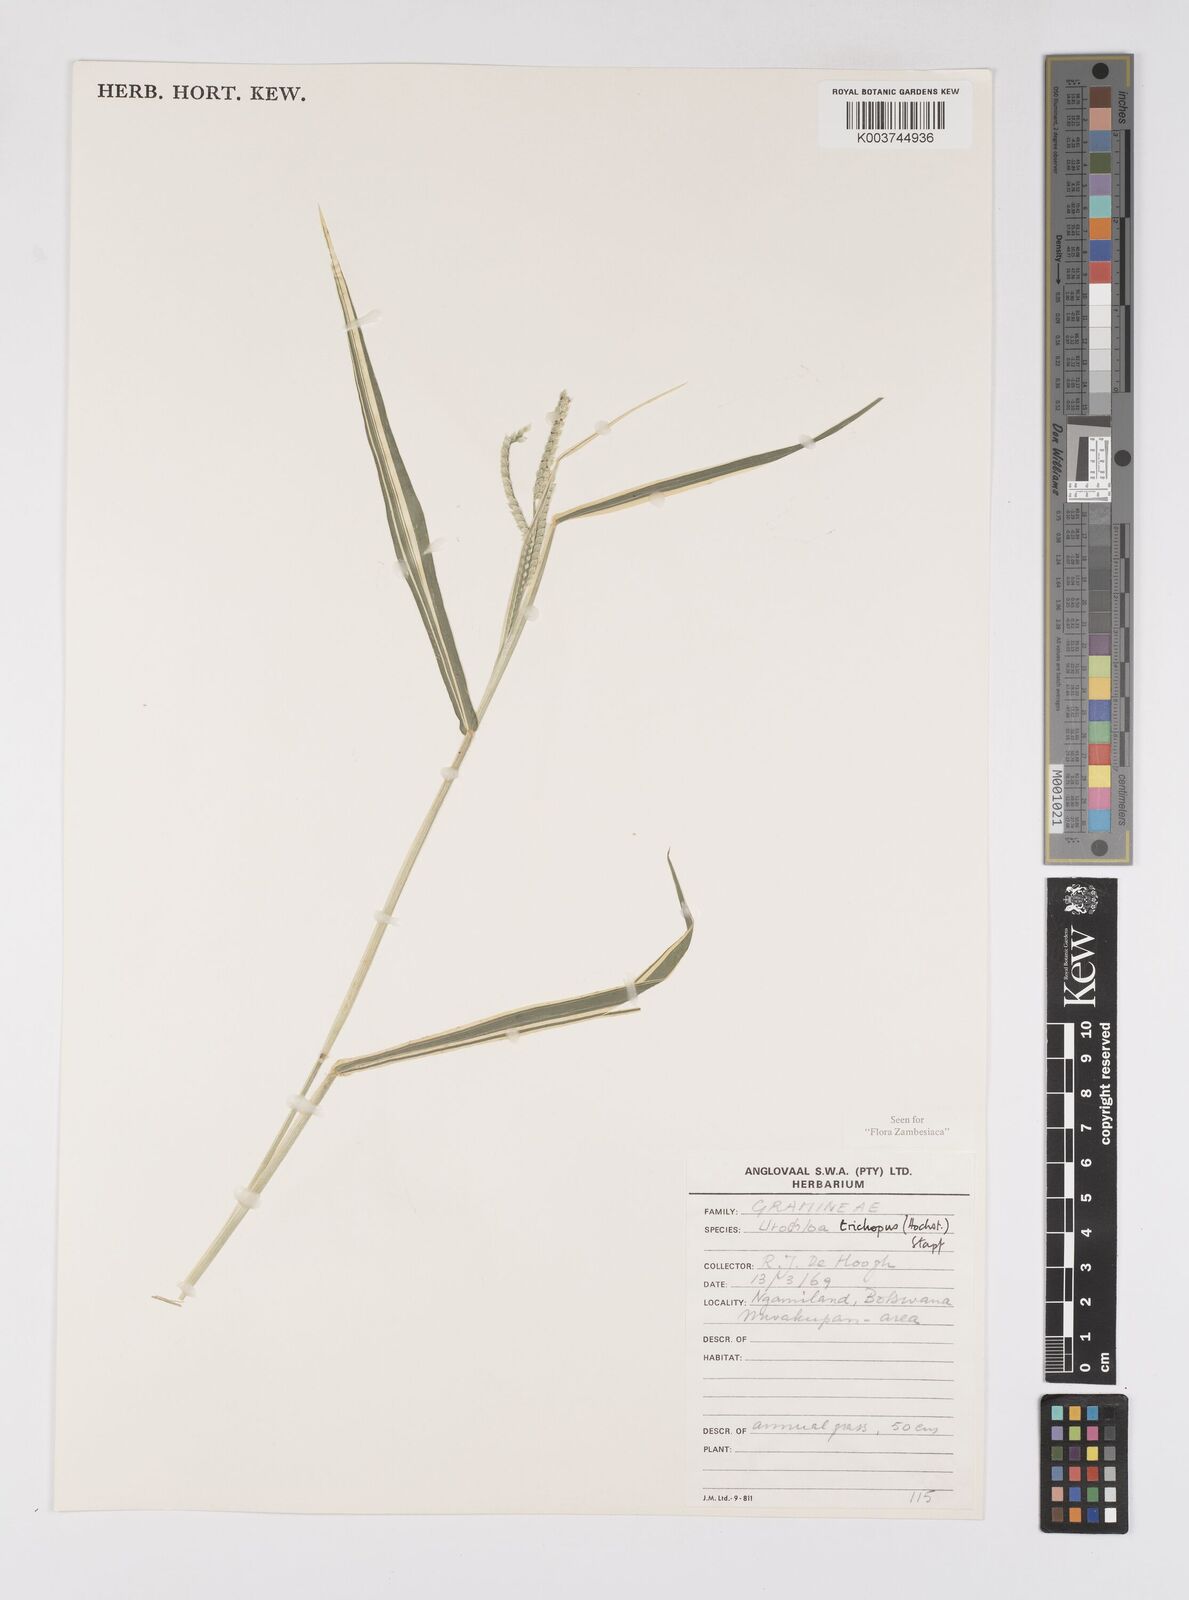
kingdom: Plantae
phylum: Tracheophyta
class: Liliopsida
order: Poales
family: Poaceae
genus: Urochloa
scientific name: Urochloa trichopus
